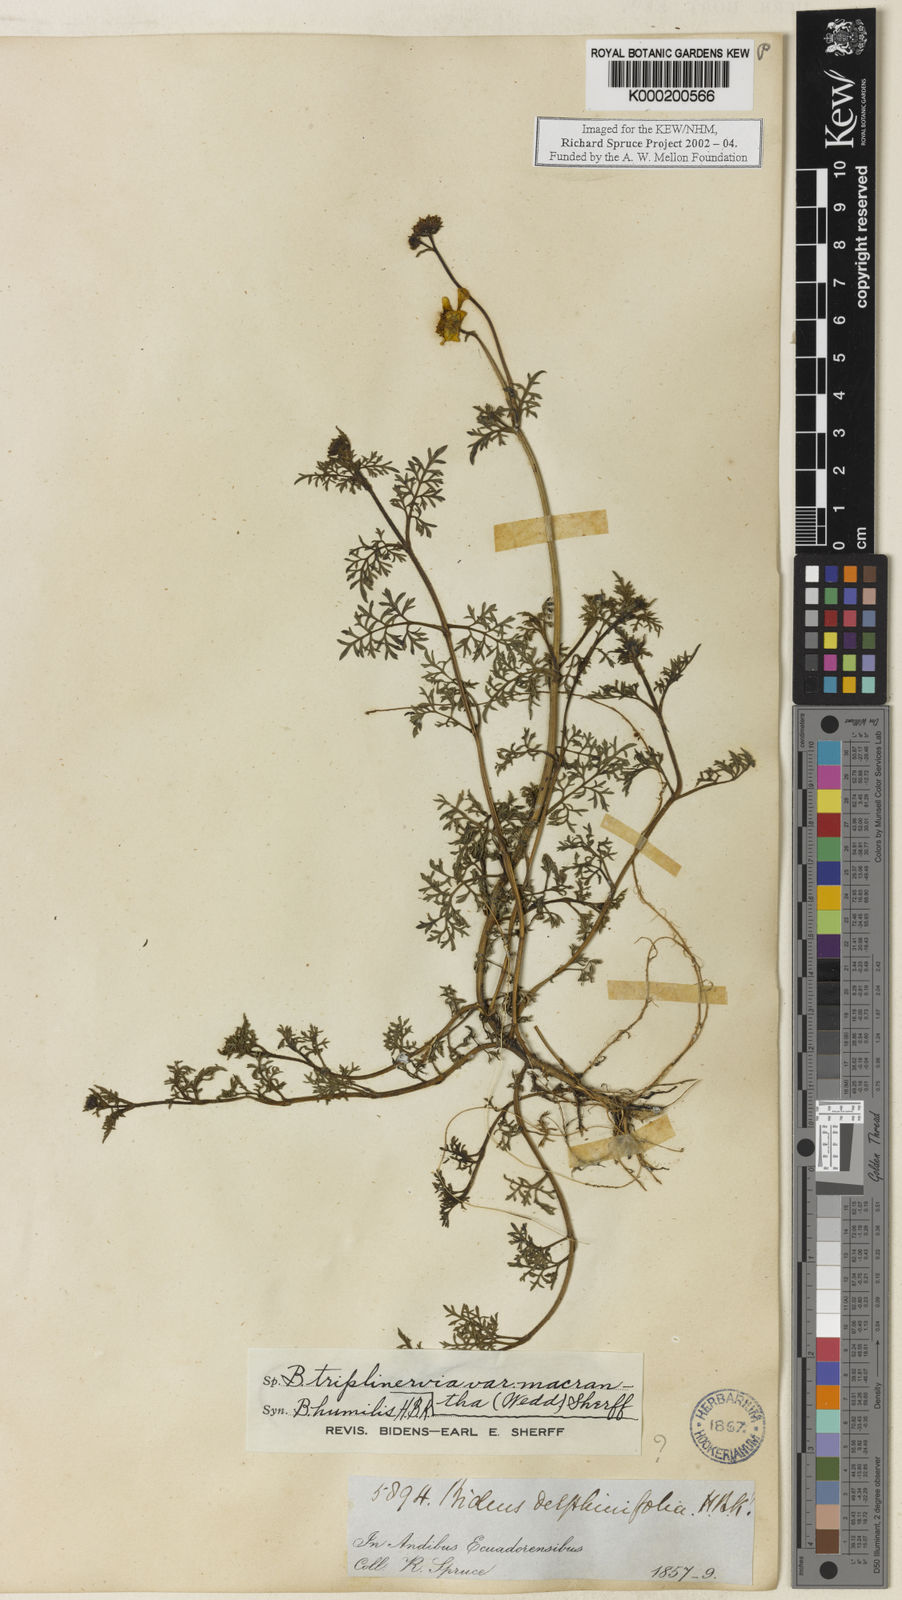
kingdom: Plantae
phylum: Tracheophyta
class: Magnoliopsida
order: Asterales
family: Asteraceae
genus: Bidens
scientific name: Bidens triplinervia
